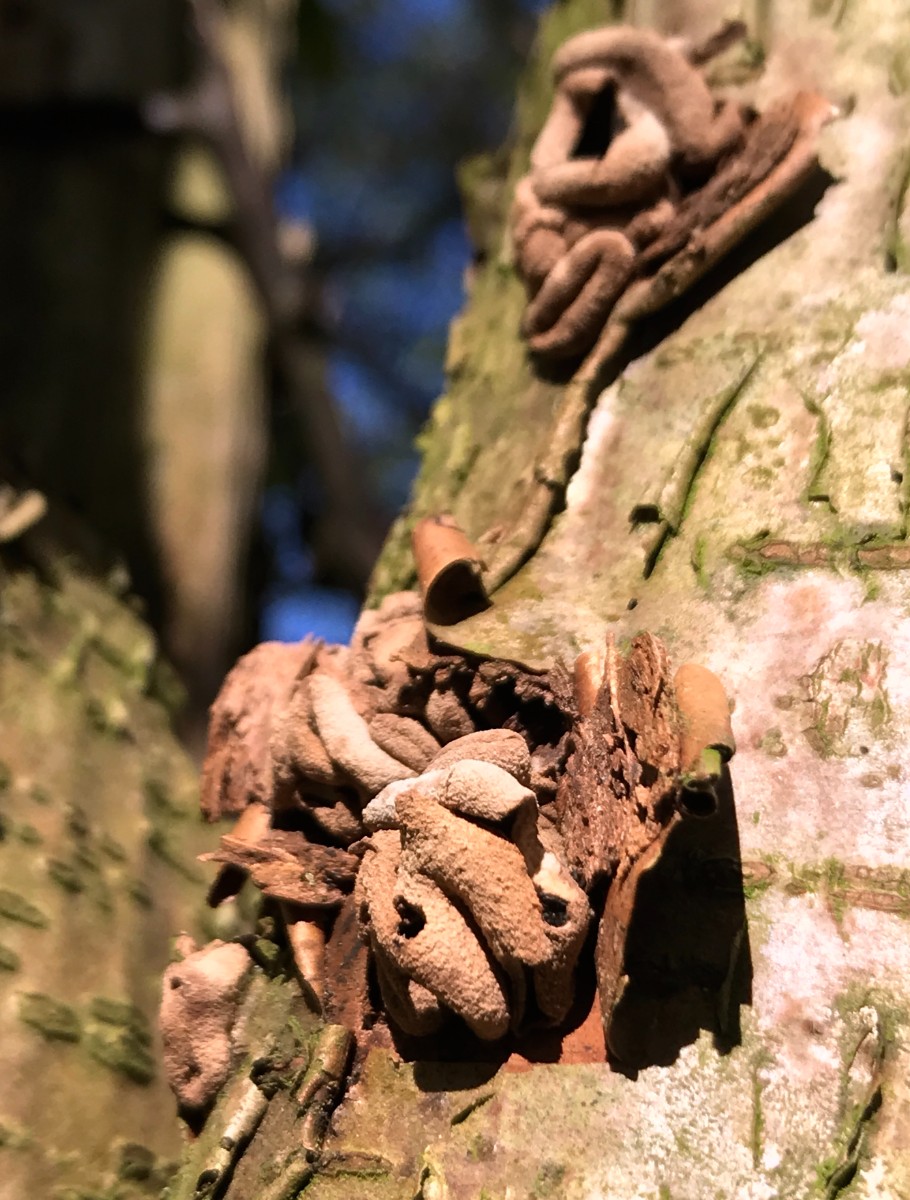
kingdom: Fungi
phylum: Ascomycota
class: Leotiomycetes
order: Helotiales
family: Cenangiaceae
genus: Encoelia
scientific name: Encoelia furfuracea
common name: hassel-læderskive
